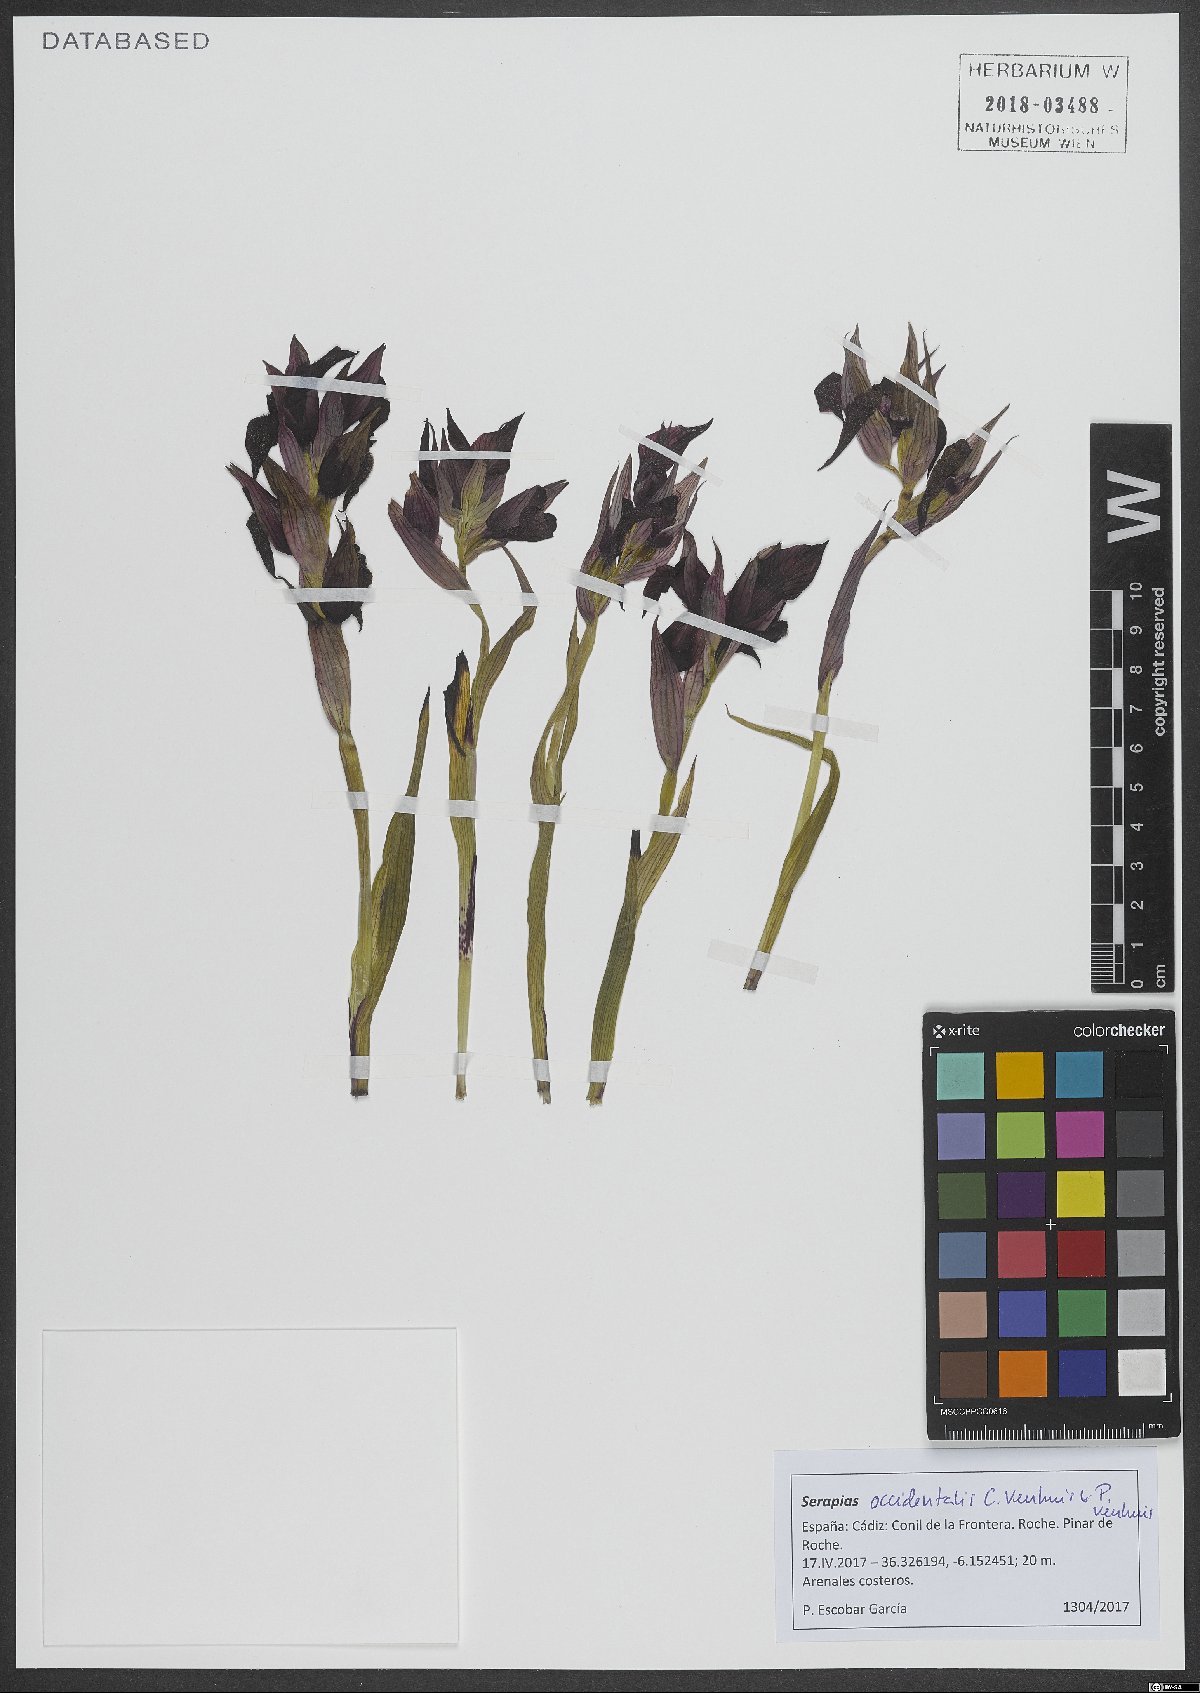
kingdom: Plantae
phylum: Tracheophyta
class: Liliopsida
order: Asparagales
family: Orchidaceae
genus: Serapias
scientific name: Serapias occidentalis
